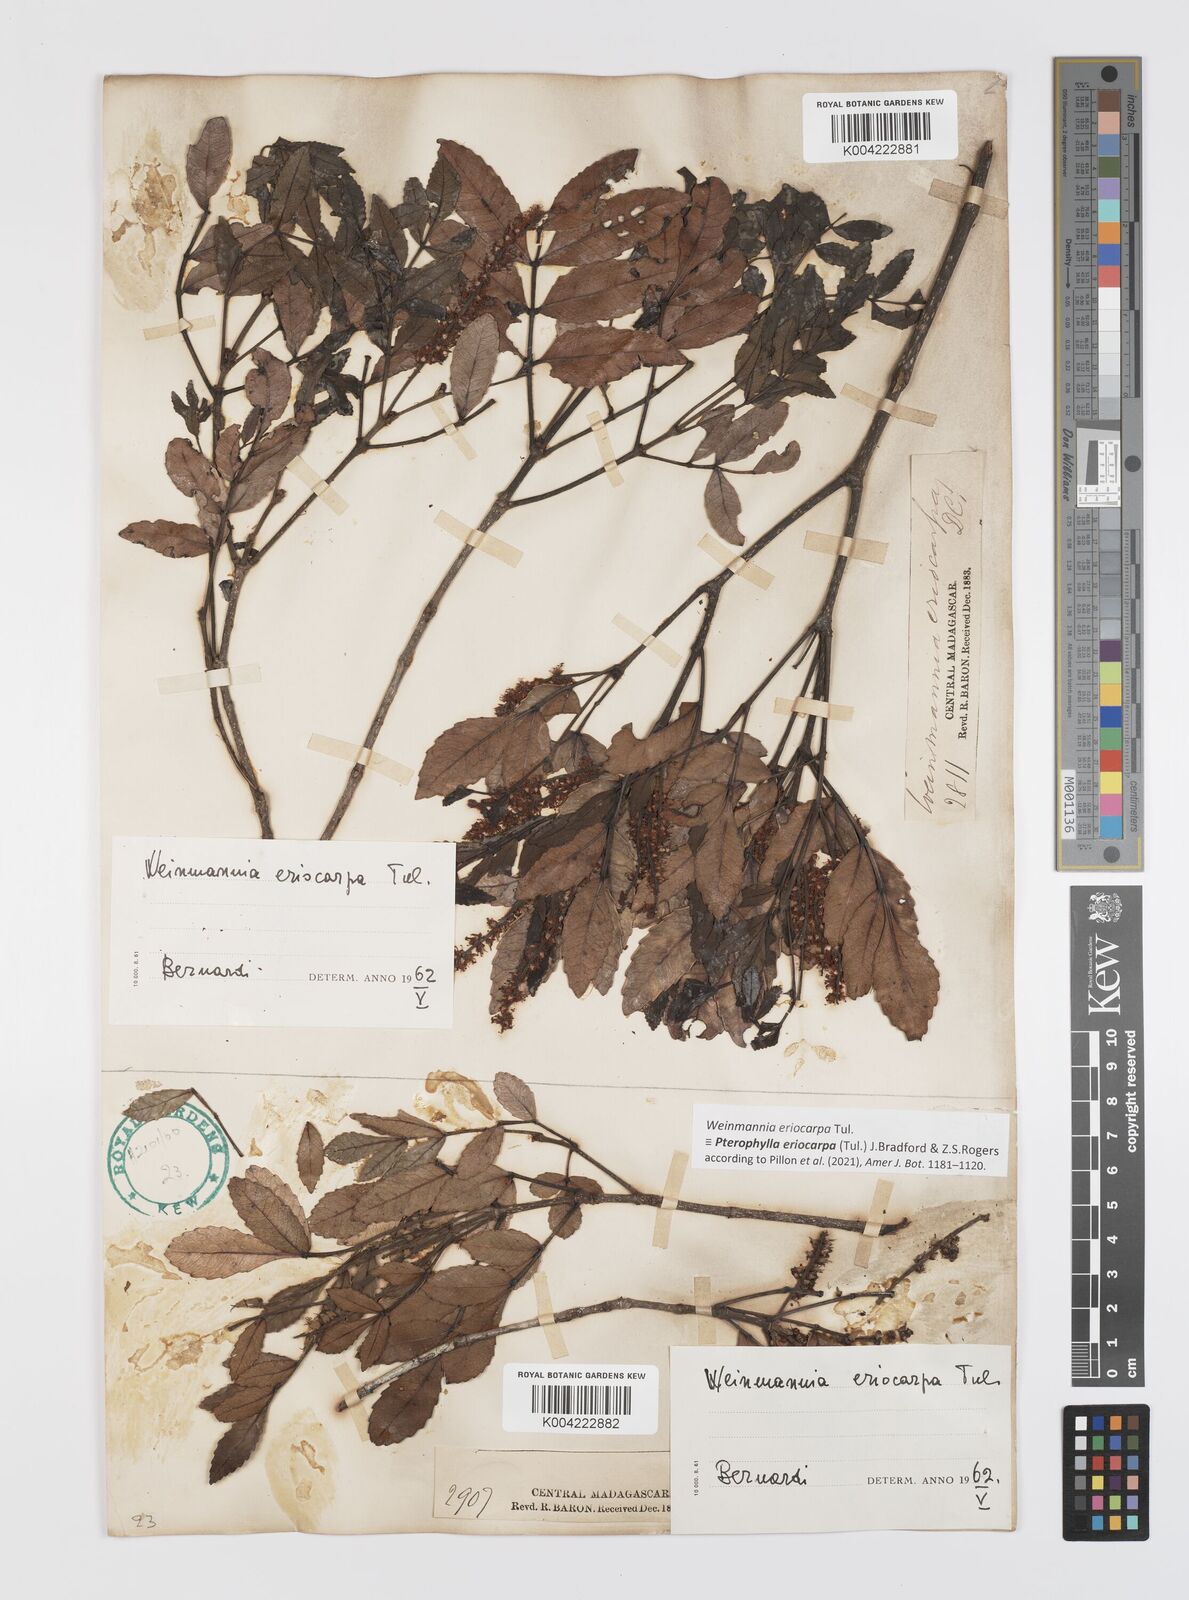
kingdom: Plantae
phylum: Tracheophyta
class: Magnoliopsida
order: Oxalidales
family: Cunoniaceae
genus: Pterophylla
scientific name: Pterophylla eriocarpa
